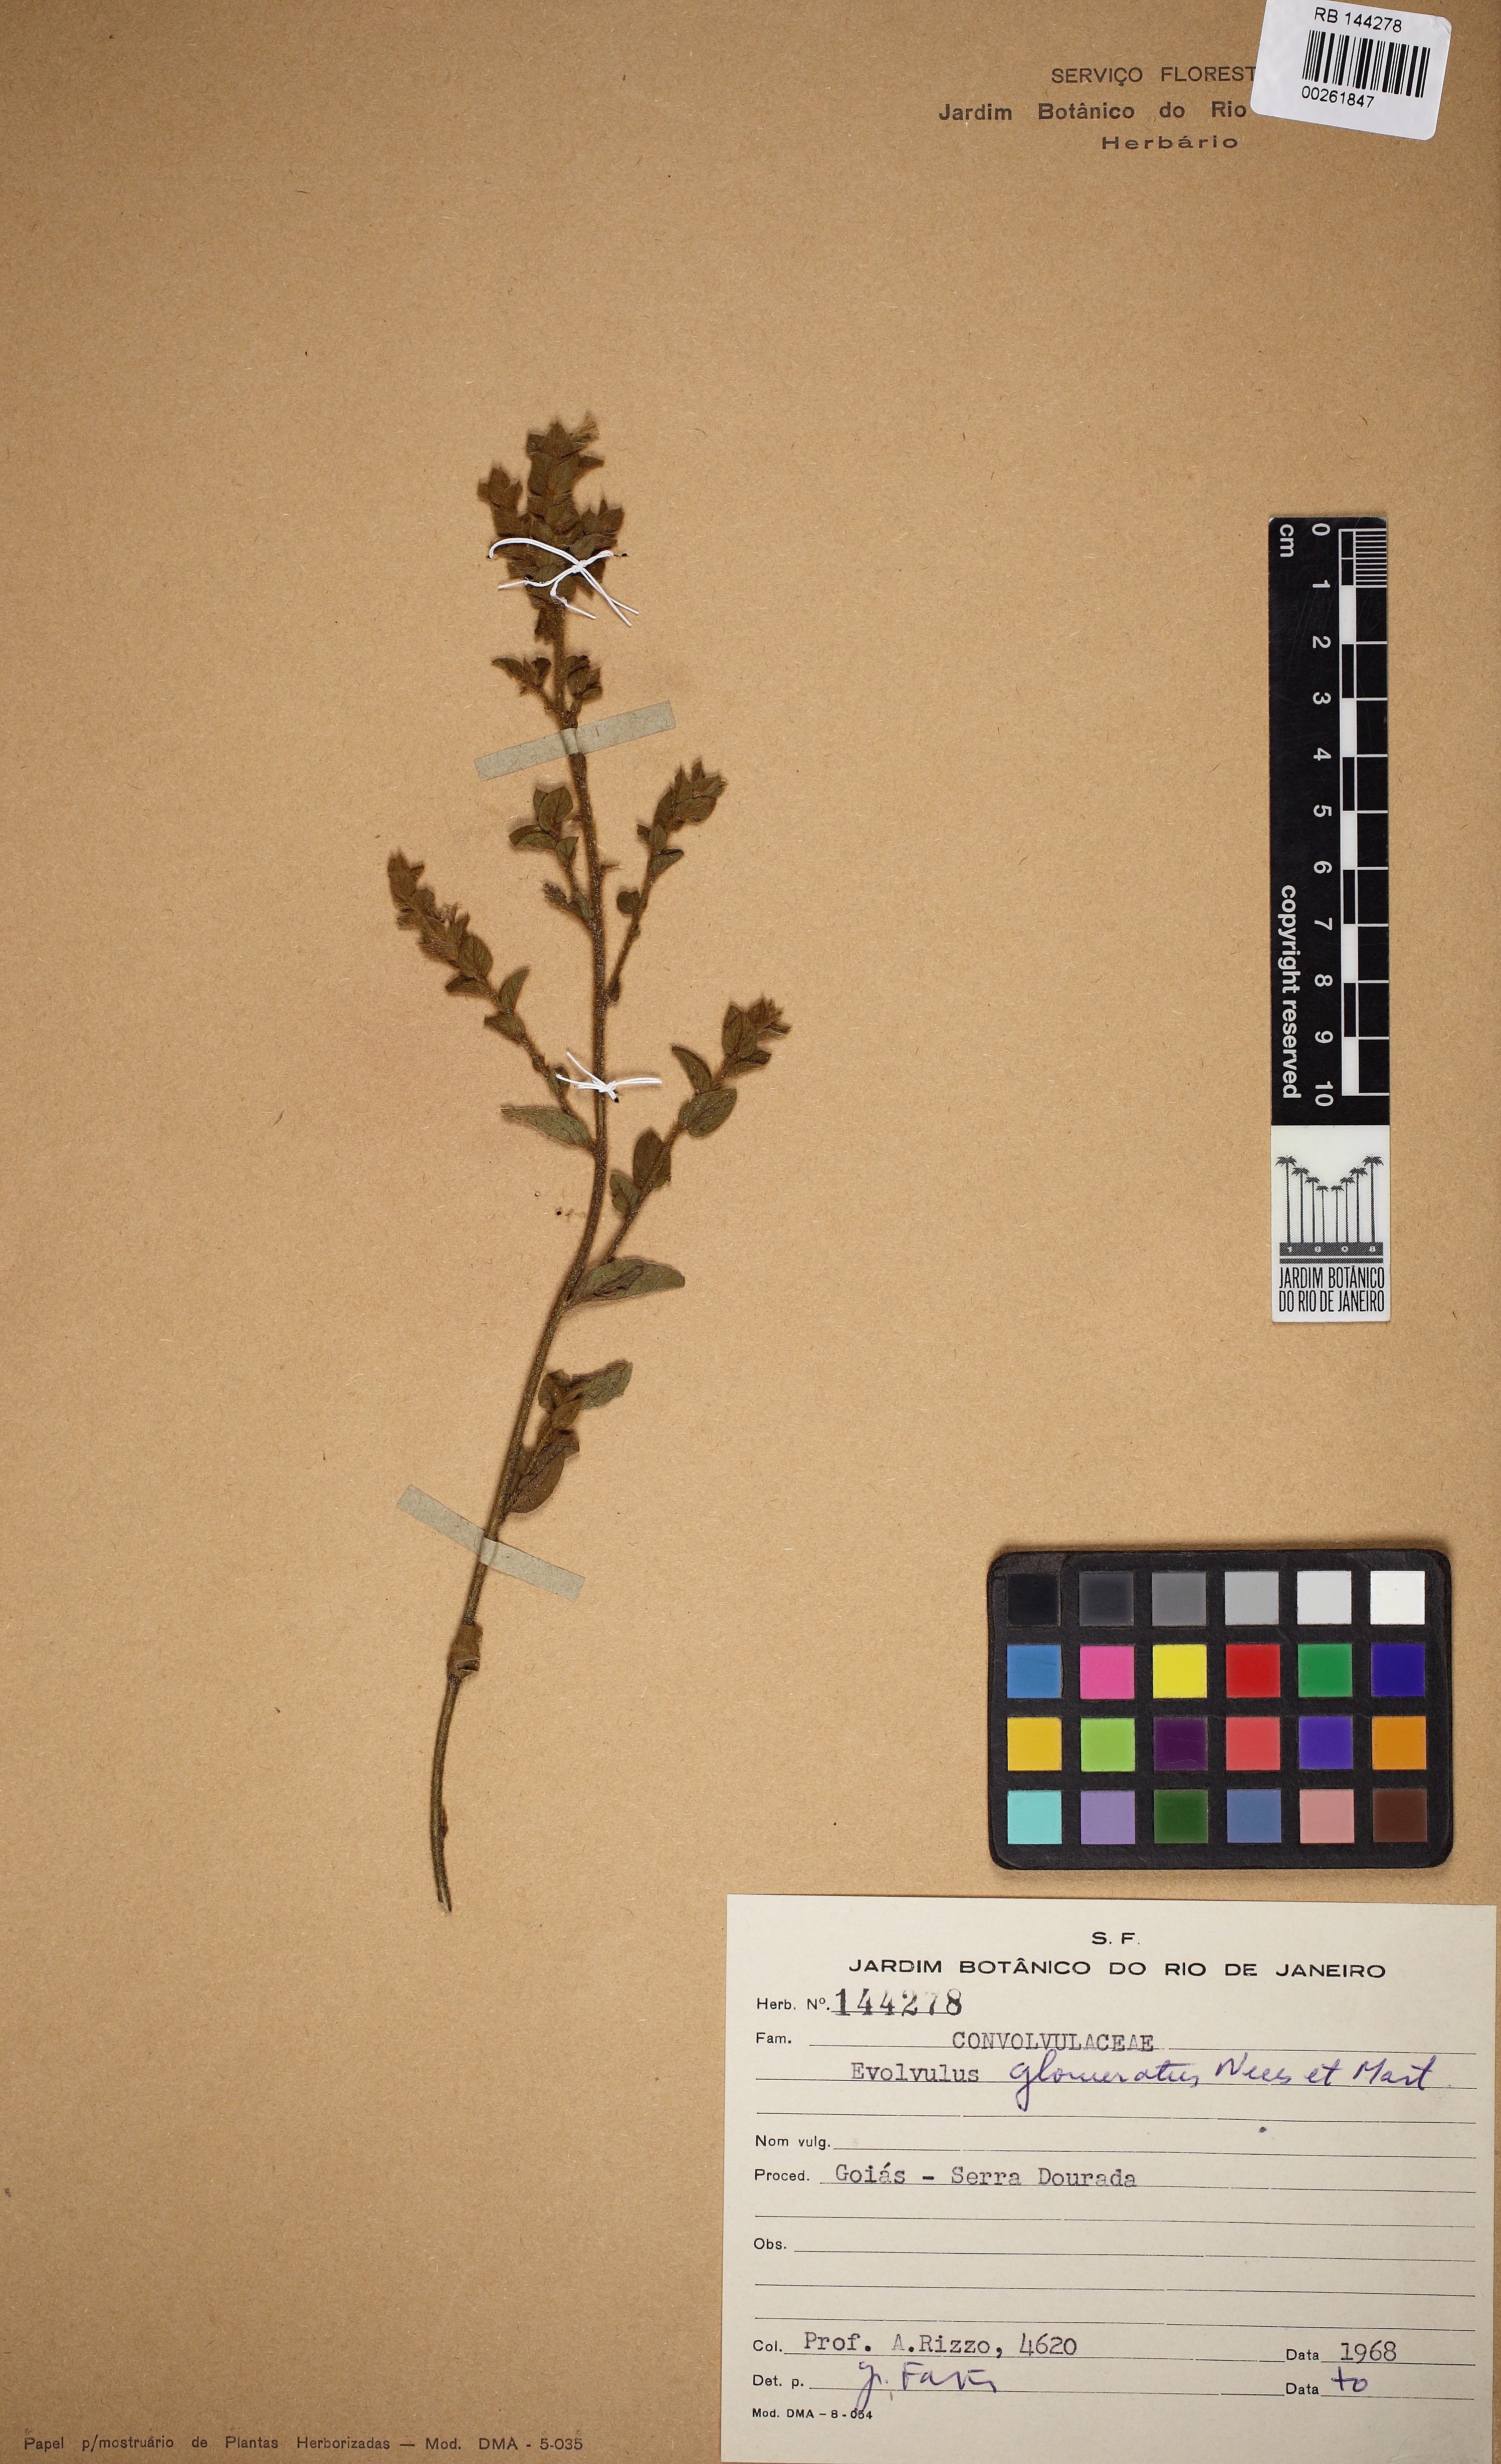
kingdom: Plantae
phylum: Tracheophyta
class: Magnoliopsida
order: Solanales
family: Convolvulaceae
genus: Evolvulus
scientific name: Evolvulus glomeratus
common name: Brazilian dwarf morning-glory
